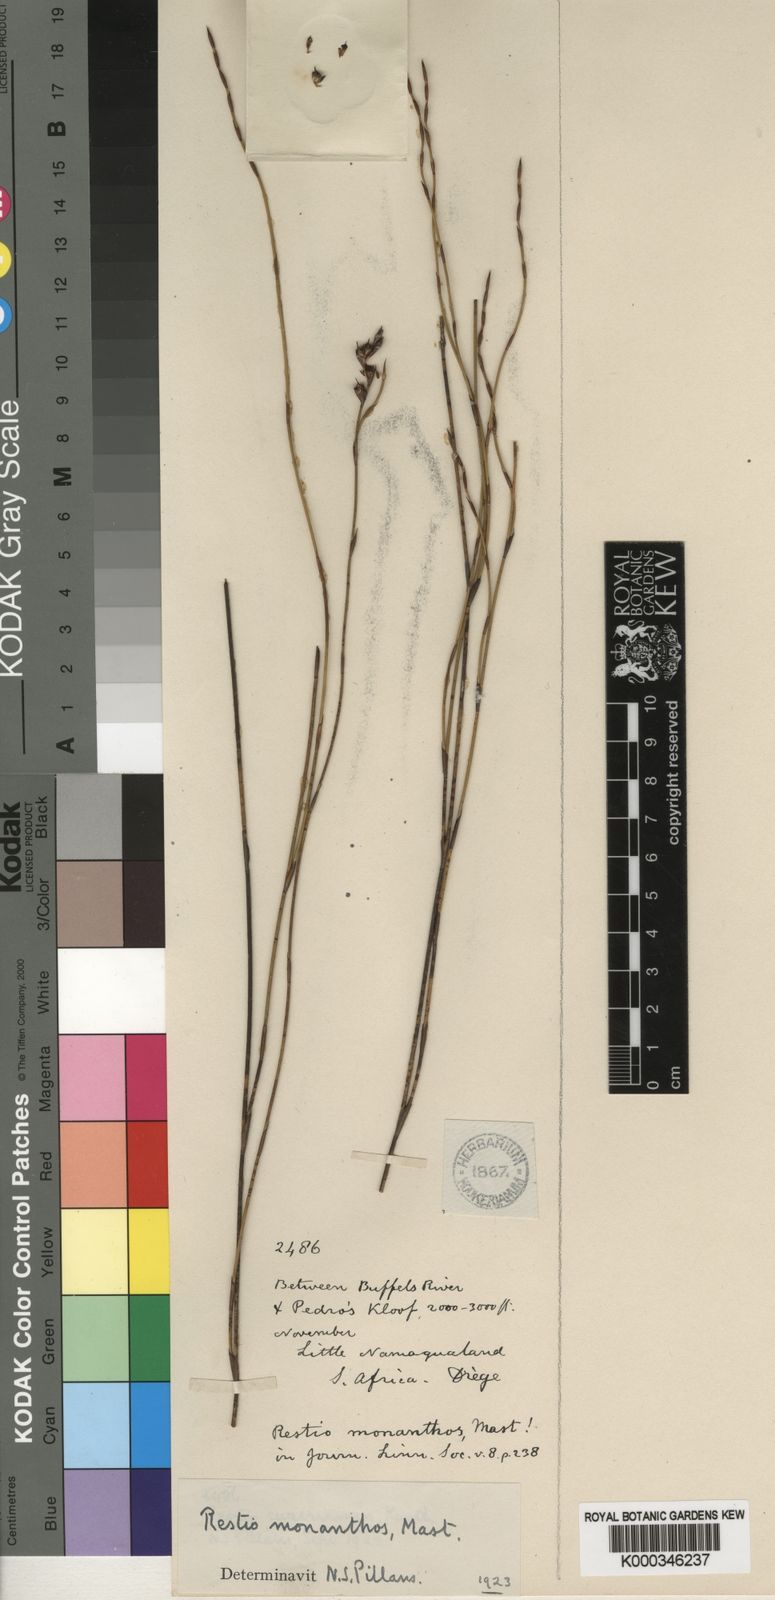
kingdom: Plantae
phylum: Tracheophyta
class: Liliopsida
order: Poales
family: Restionaceae
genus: Restio
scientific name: Restio monanthos
